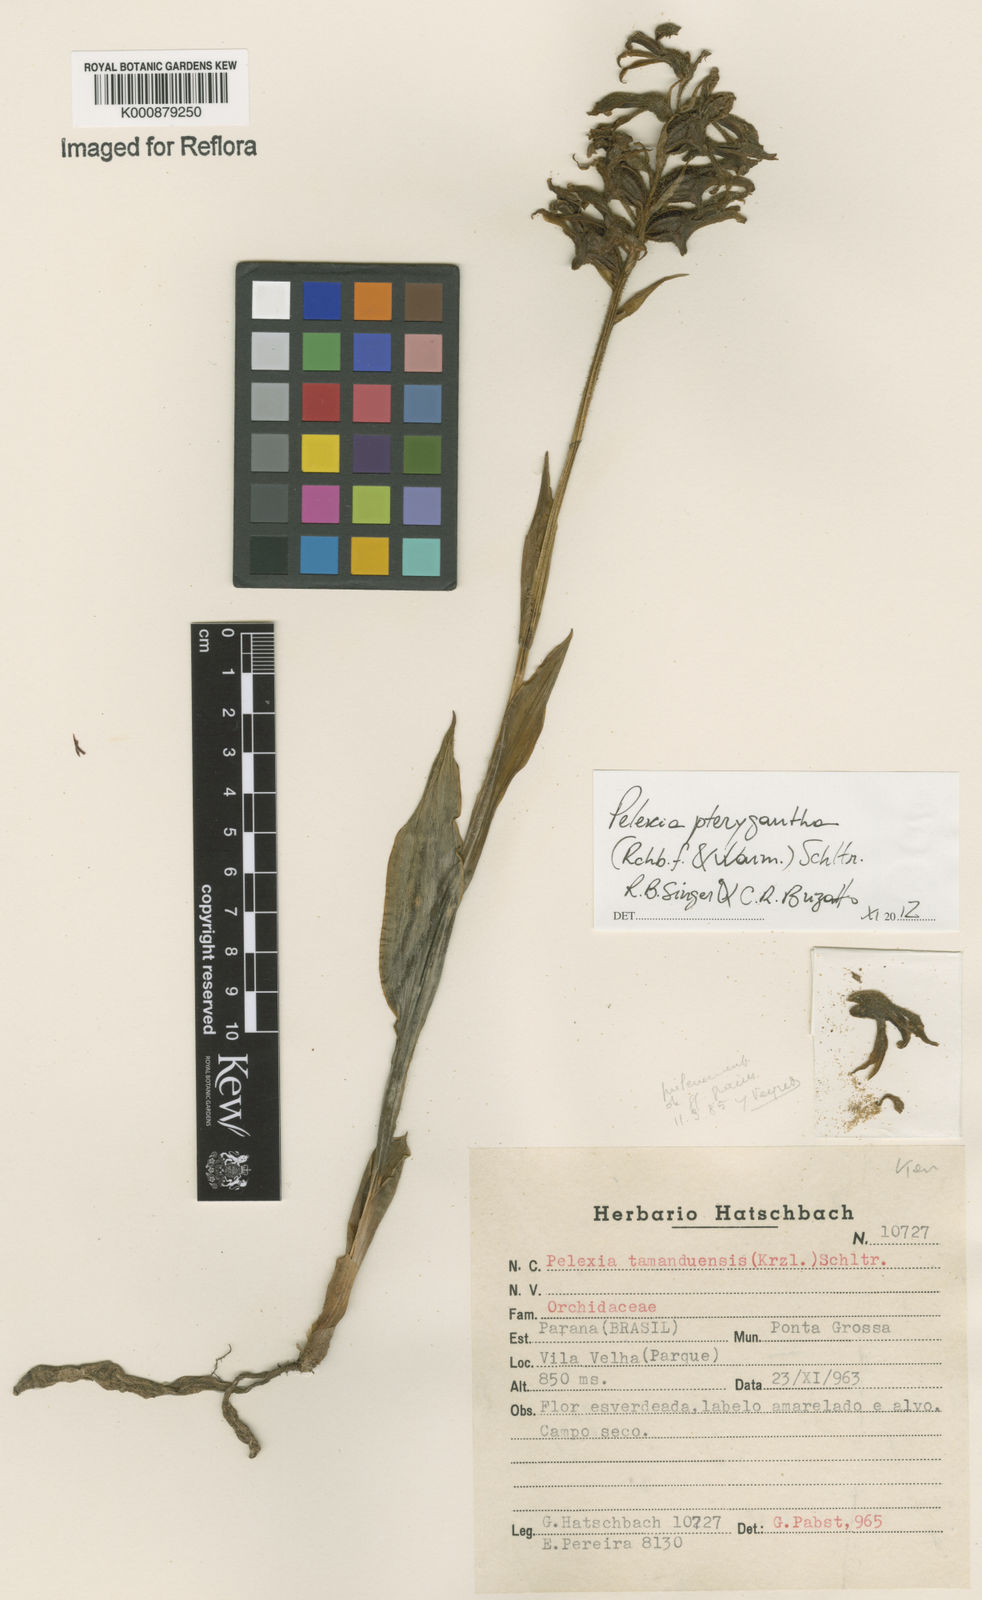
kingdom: Plantae
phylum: Tracheophyta
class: Liliopsida
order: Asparagales
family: Orchidaceae
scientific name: Orchidaceae
